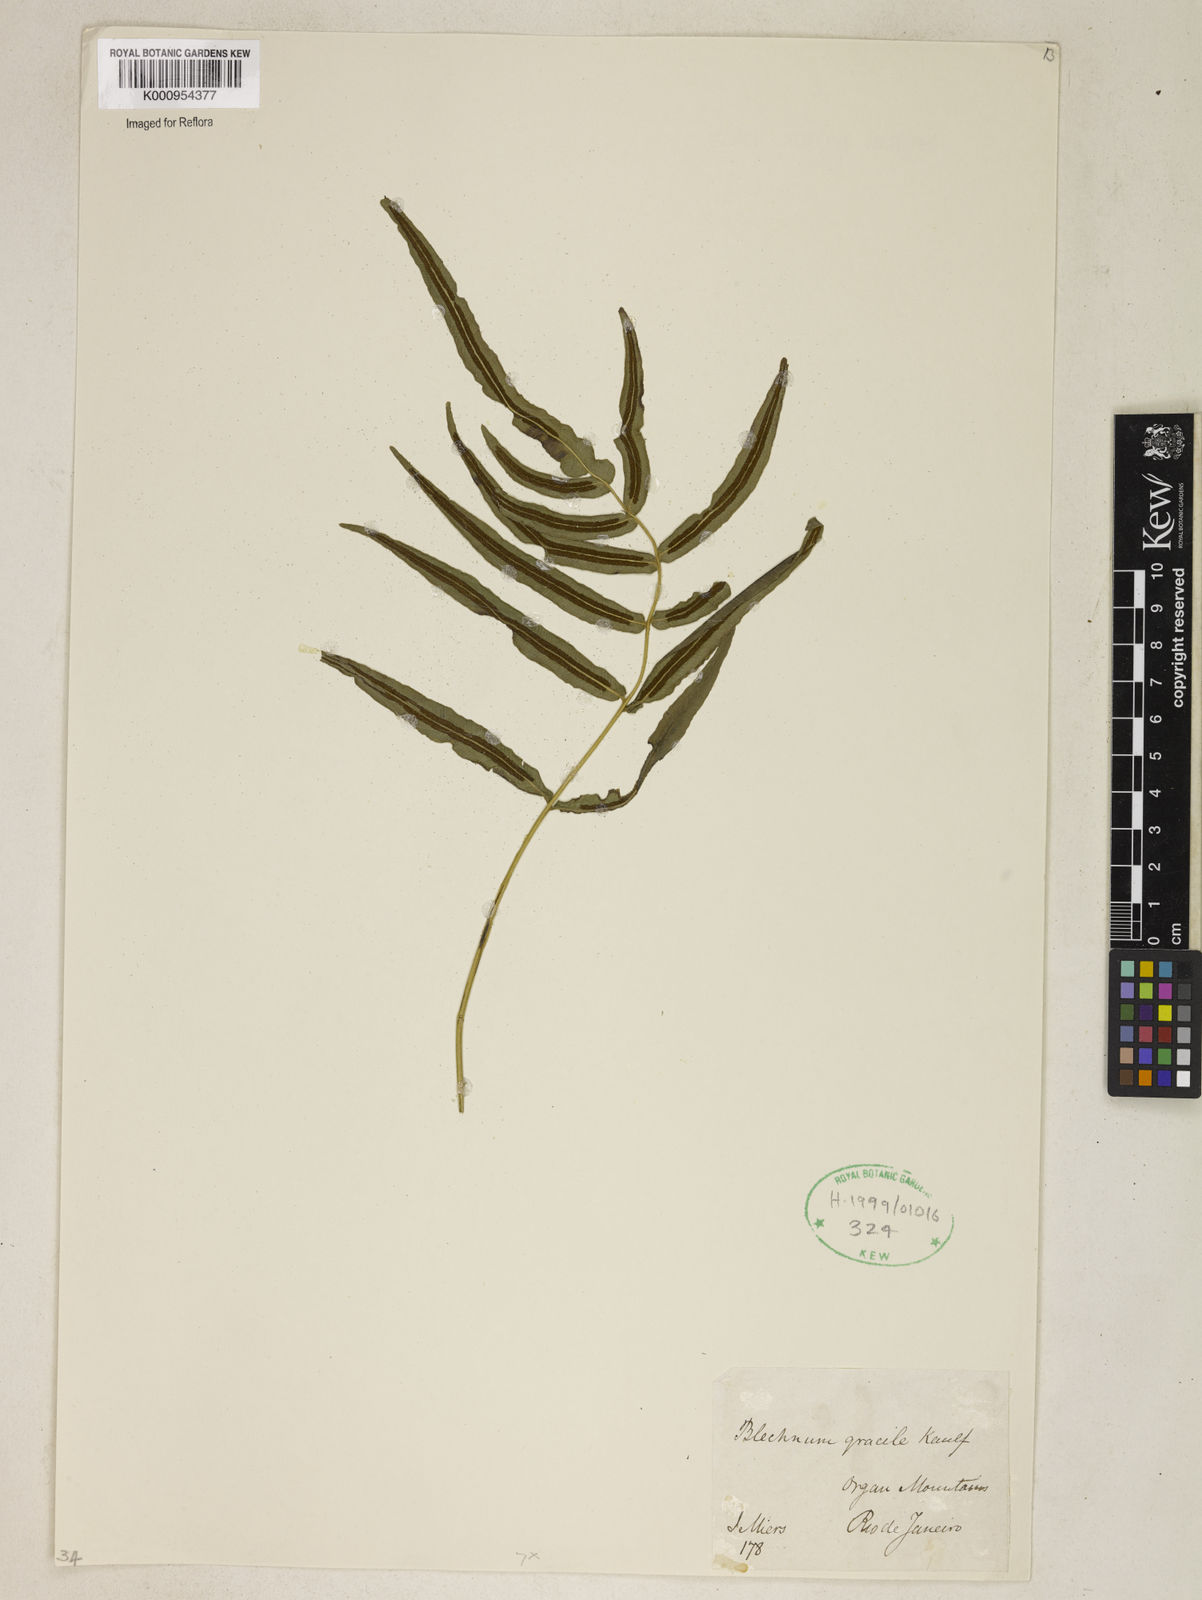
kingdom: Plantae
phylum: Tracheophyta
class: Polypodiopsida
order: Polypodiales
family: Blechnaceae
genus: Blechnum
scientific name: Blechnum gracile
